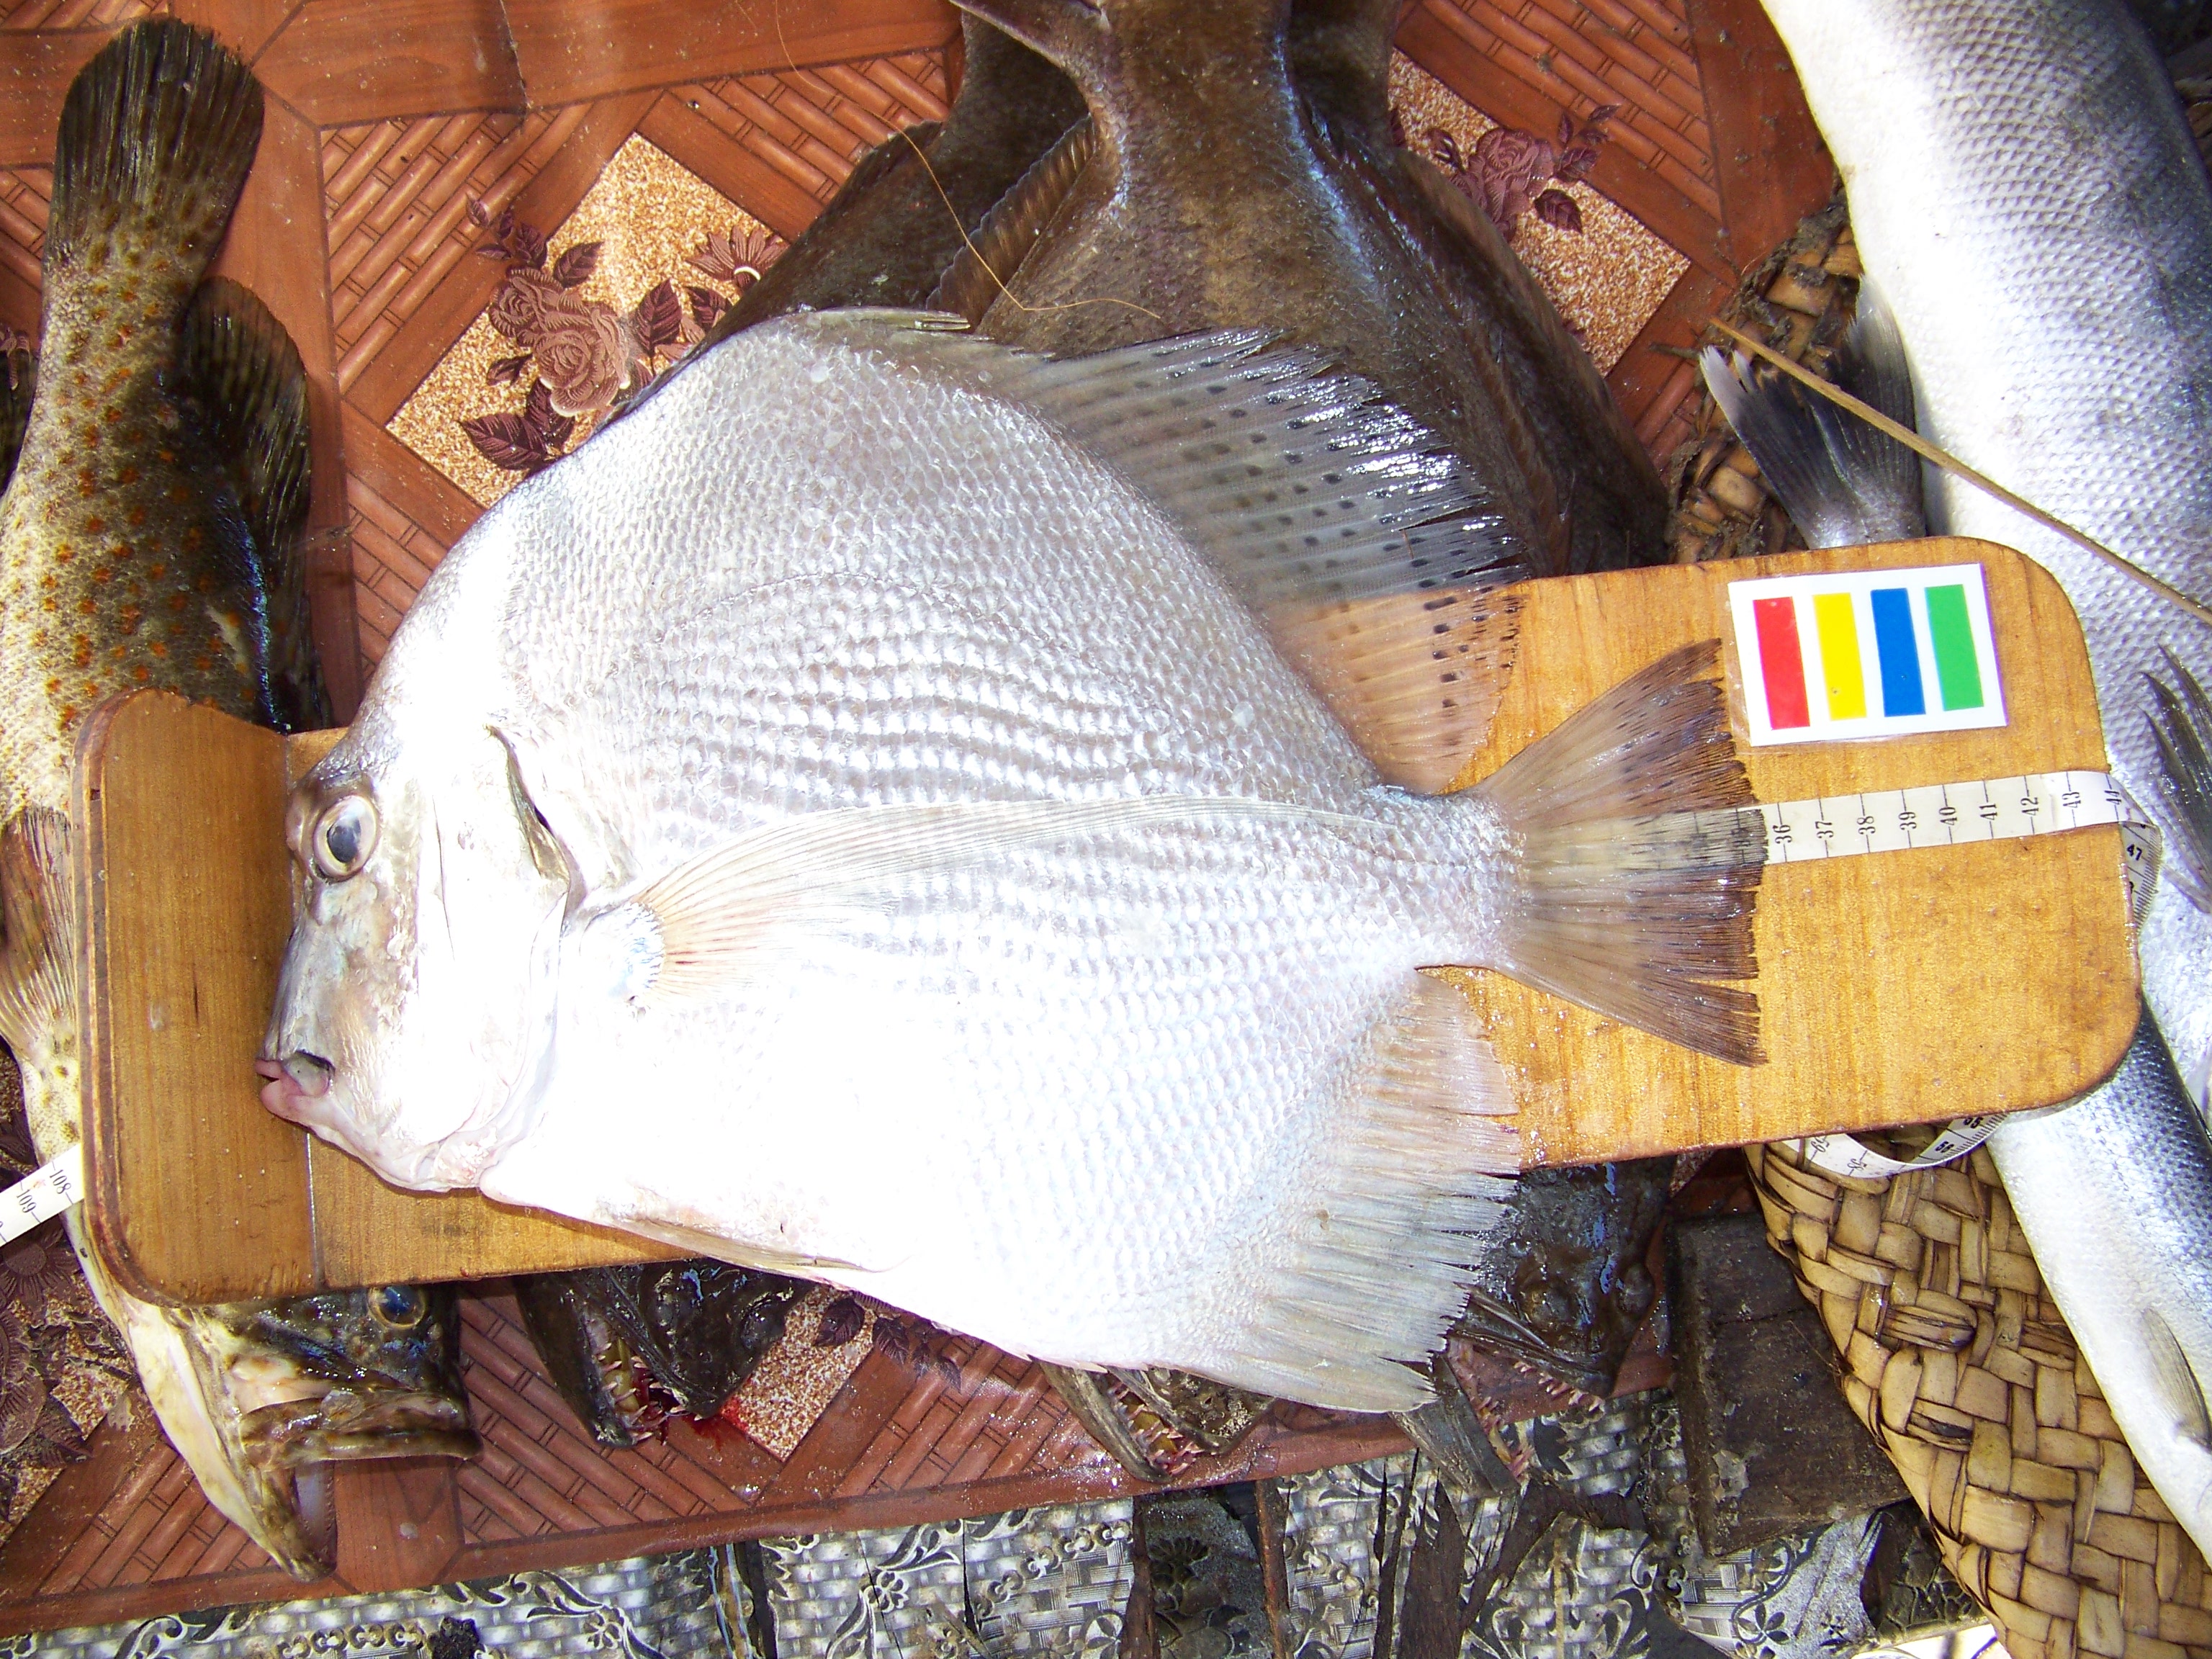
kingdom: Animalia
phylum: Chordata
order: Perciformes
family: Drepaneidae
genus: Drepane
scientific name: Drepane longimana
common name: Concertina fish
